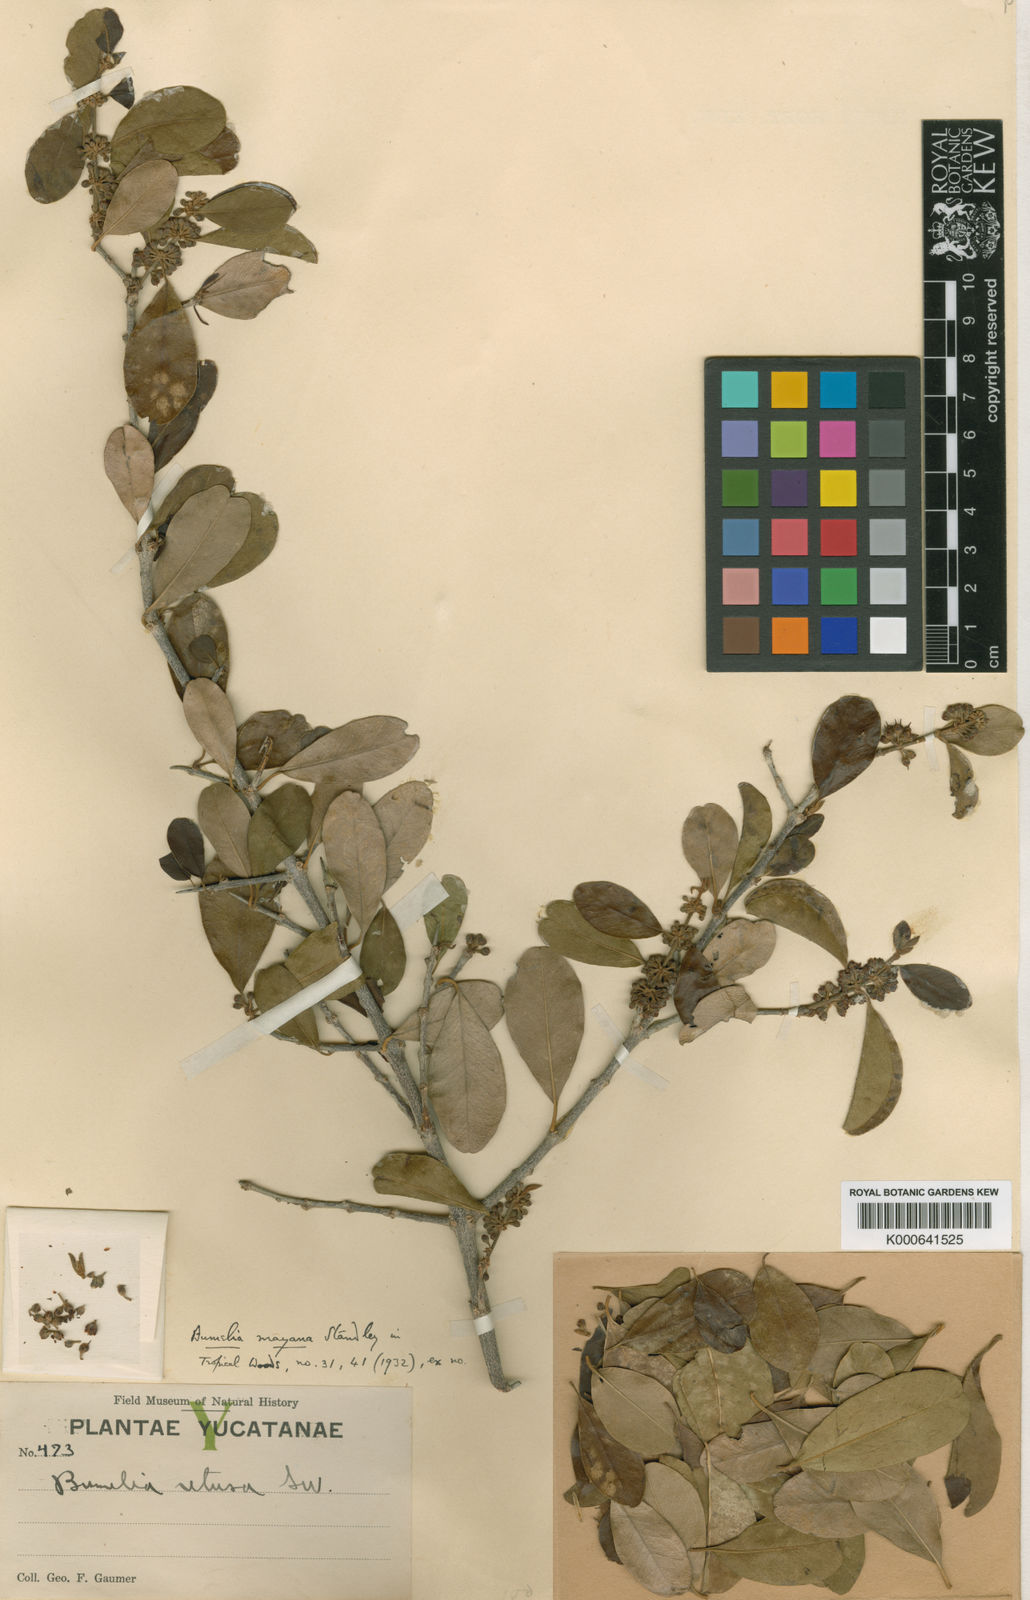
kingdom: Plantae
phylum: Tracheophyta
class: Magnoliopsida
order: Ericales
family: Sapotaceae
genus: Sideroxylon
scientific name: Sideroxylon obtusifolium
